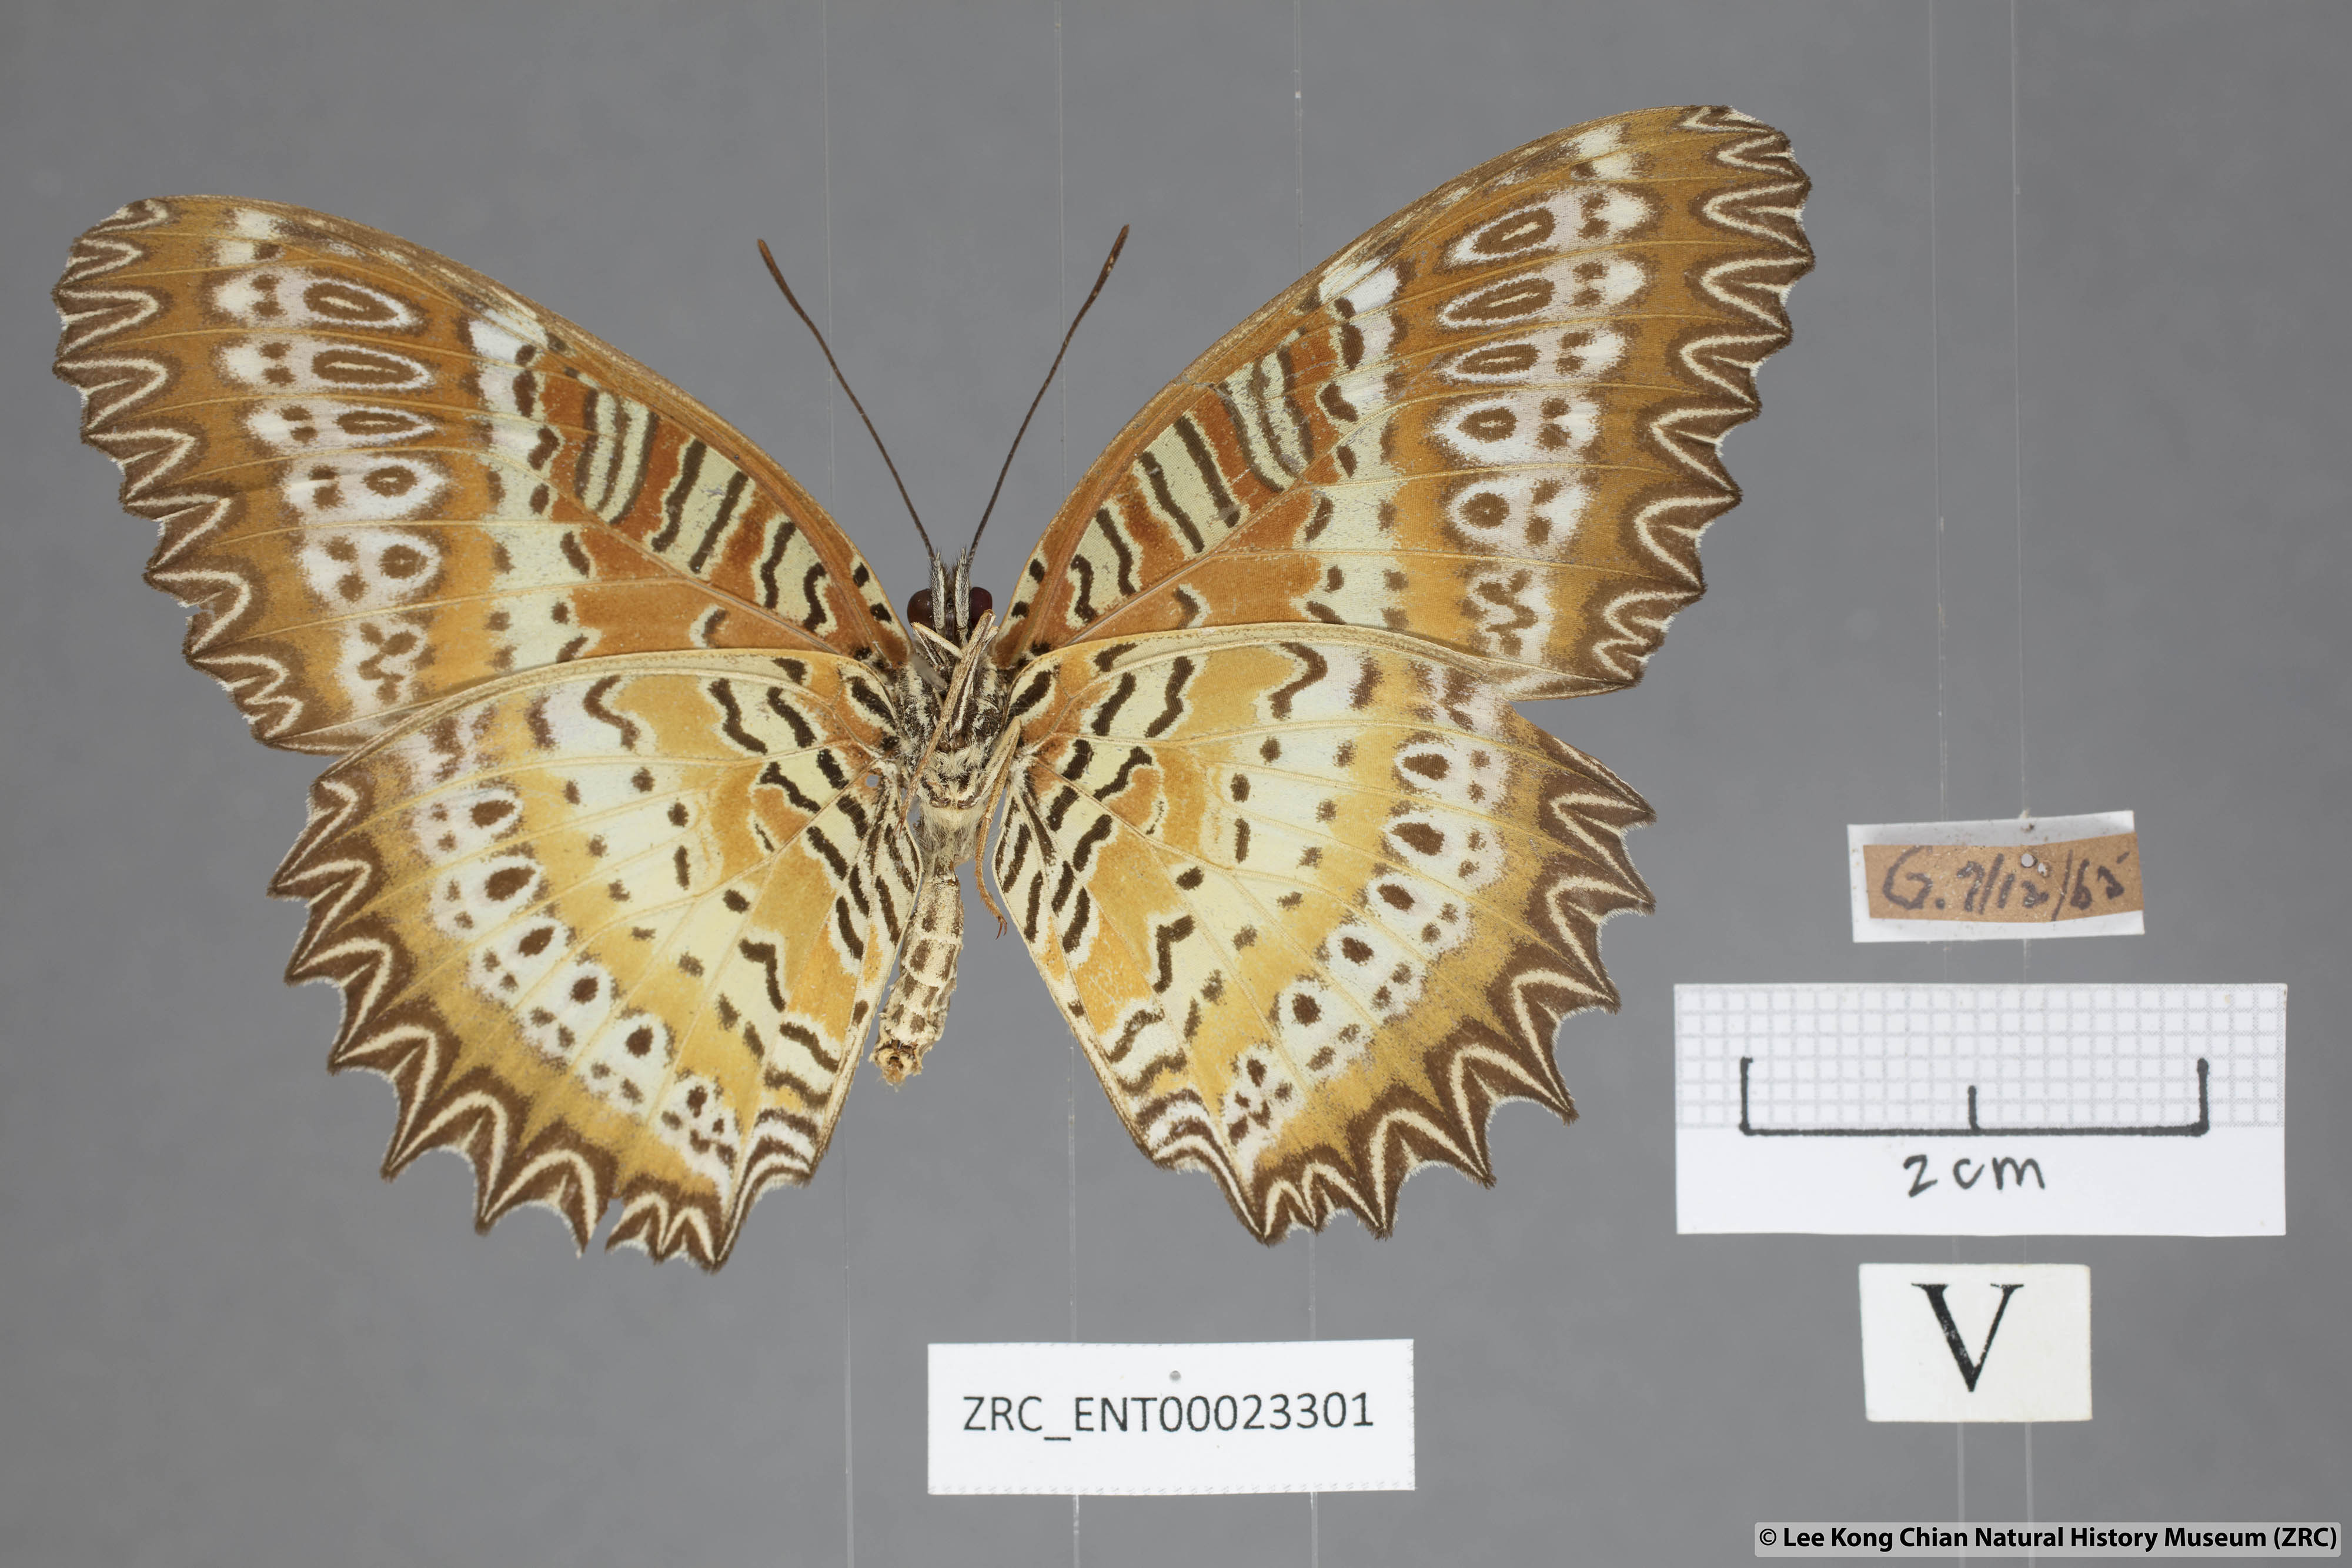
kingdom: Animalia
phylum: Arthropoda
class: Insecta
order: Lepidoptera
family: Nymphalidae
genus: Cethosia
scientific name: Cethosia biblis
